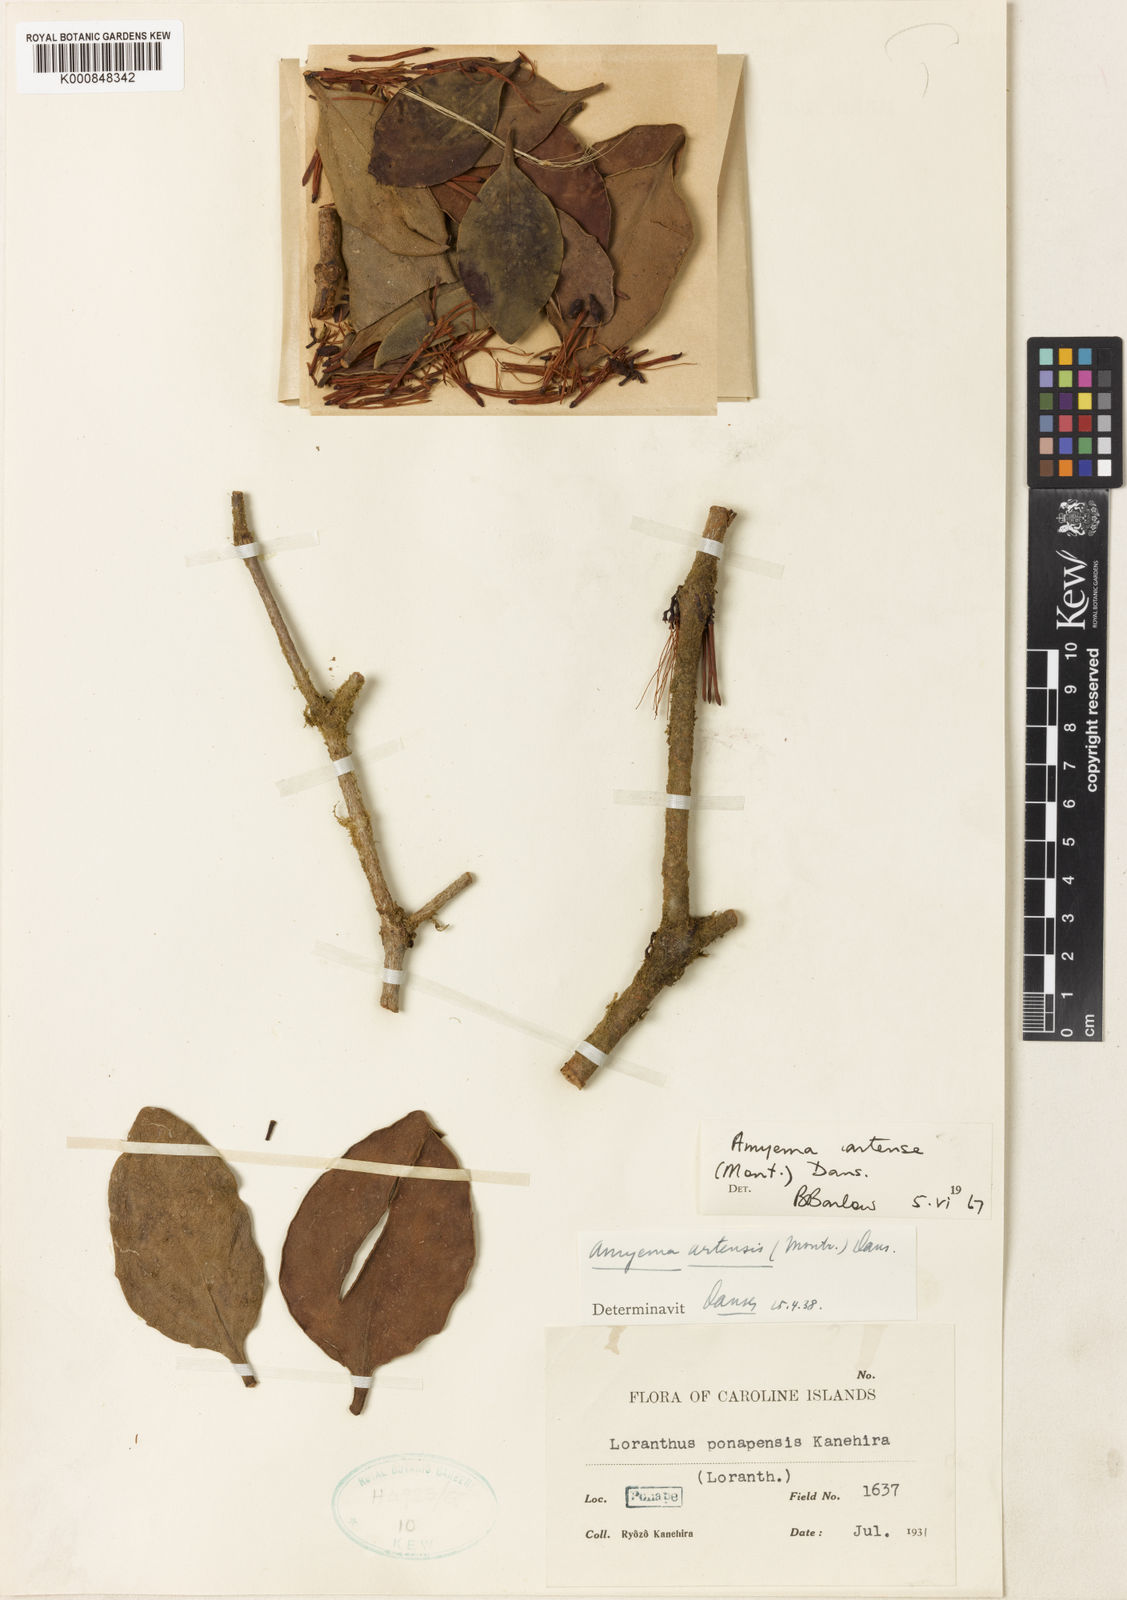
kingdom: Plantae
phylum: Tracheophyta
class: Magnoliopsida
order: Santalales
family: Loranthaceae
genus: Amyema
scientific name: Amyema artensis
